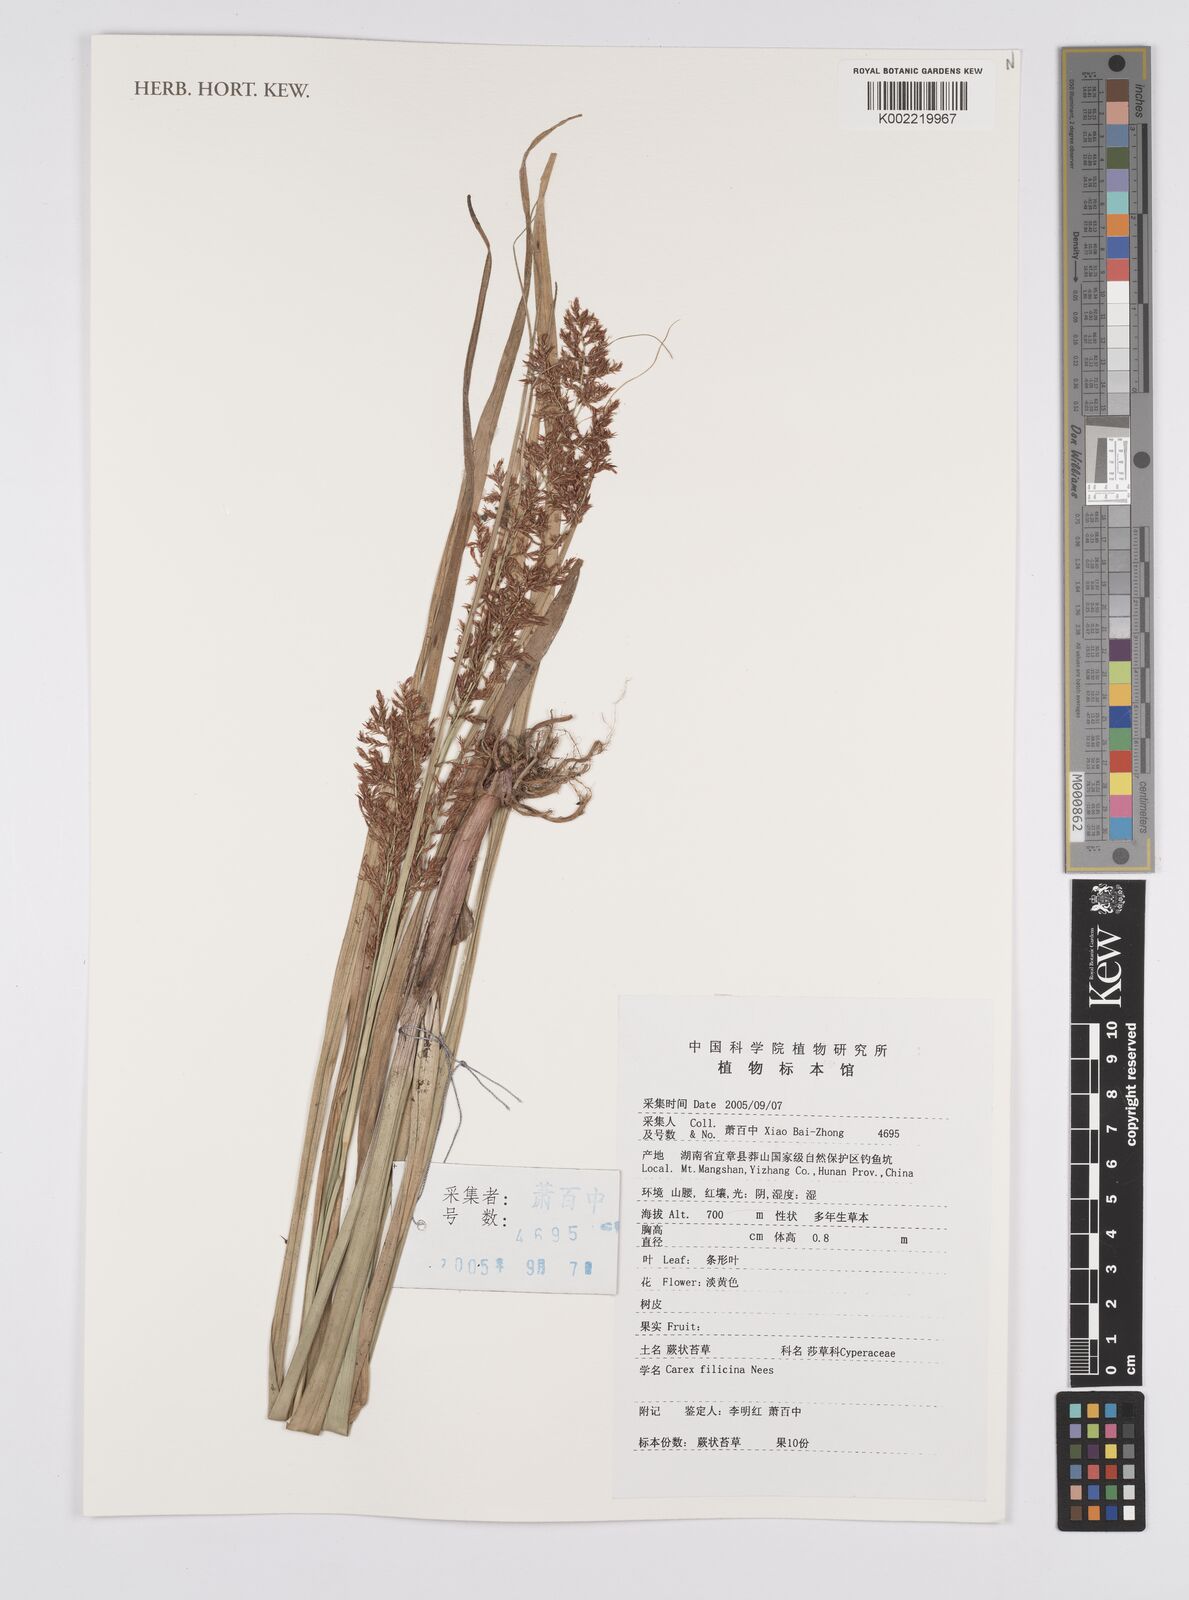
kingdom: Plantae
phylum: Tracheophyta
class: Liliopsida
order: Poales
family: Cyperaceae
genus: Carex
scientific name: Carex filicina
